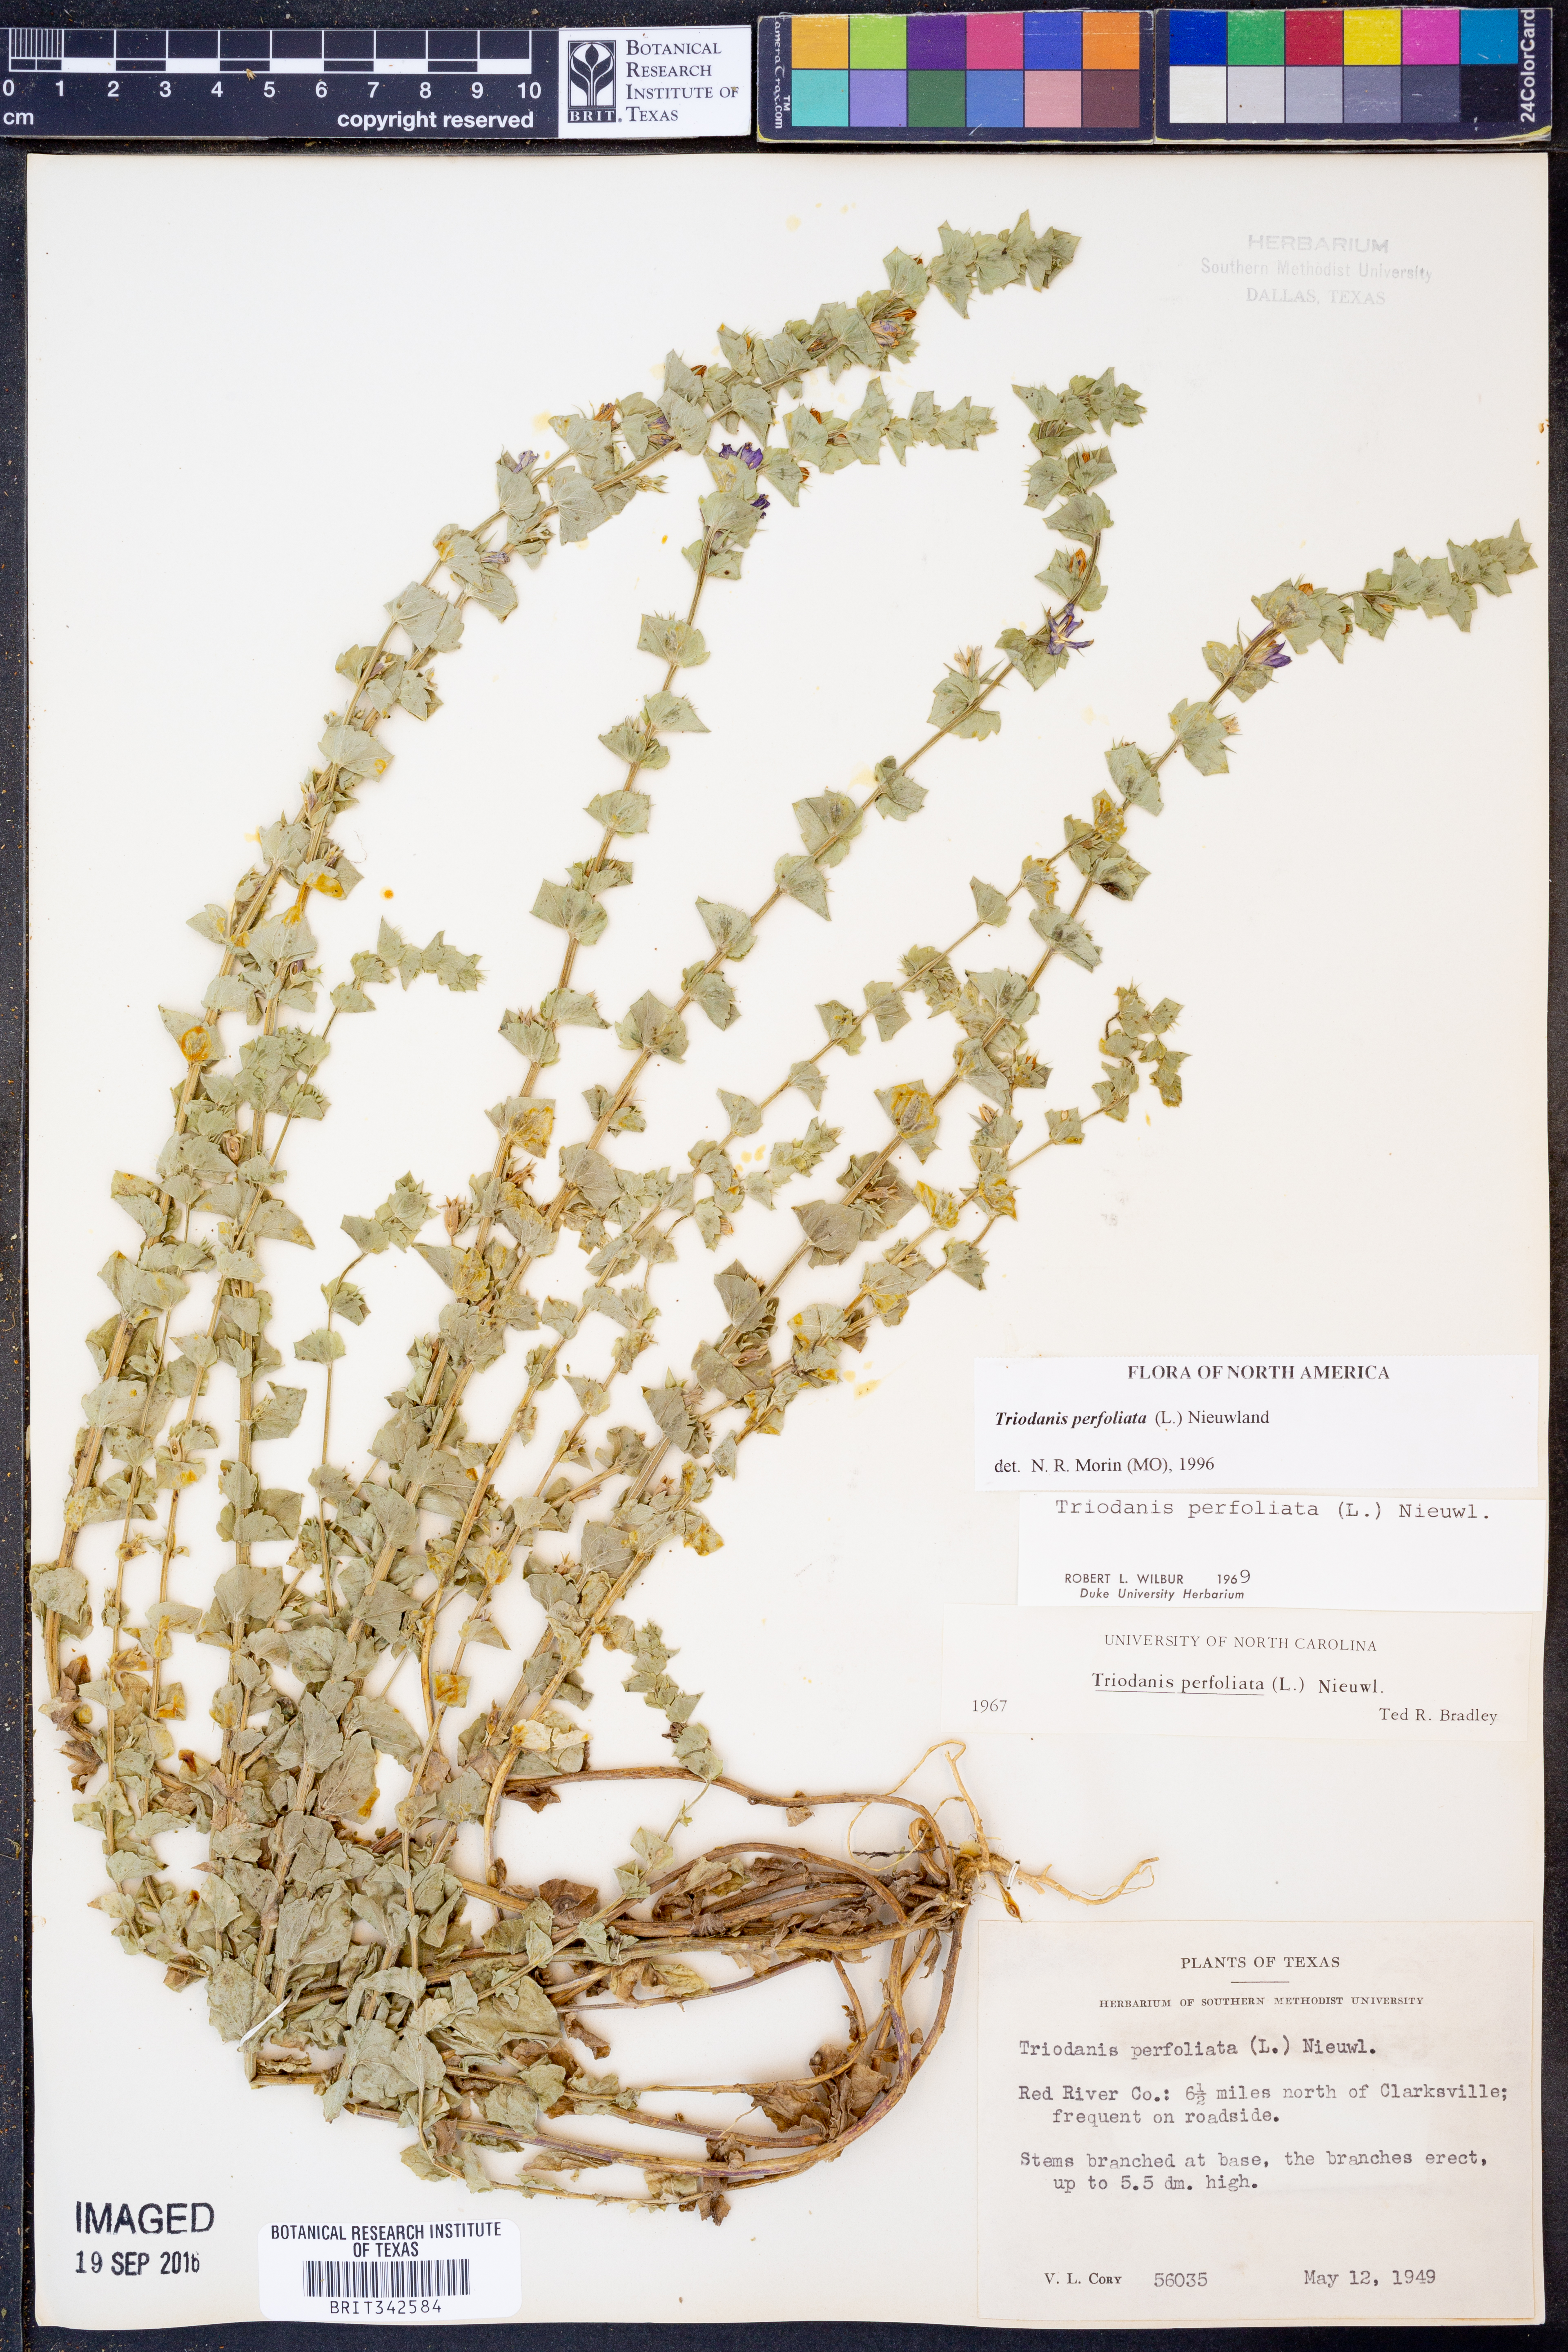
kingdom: Plantae
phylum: Tracheophyta
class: Magnoliopsida
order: Asterales
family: Campanulaceae
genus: Triodanis
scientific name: Triodanis perfoliata
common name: Clasping venus' looking-glass
